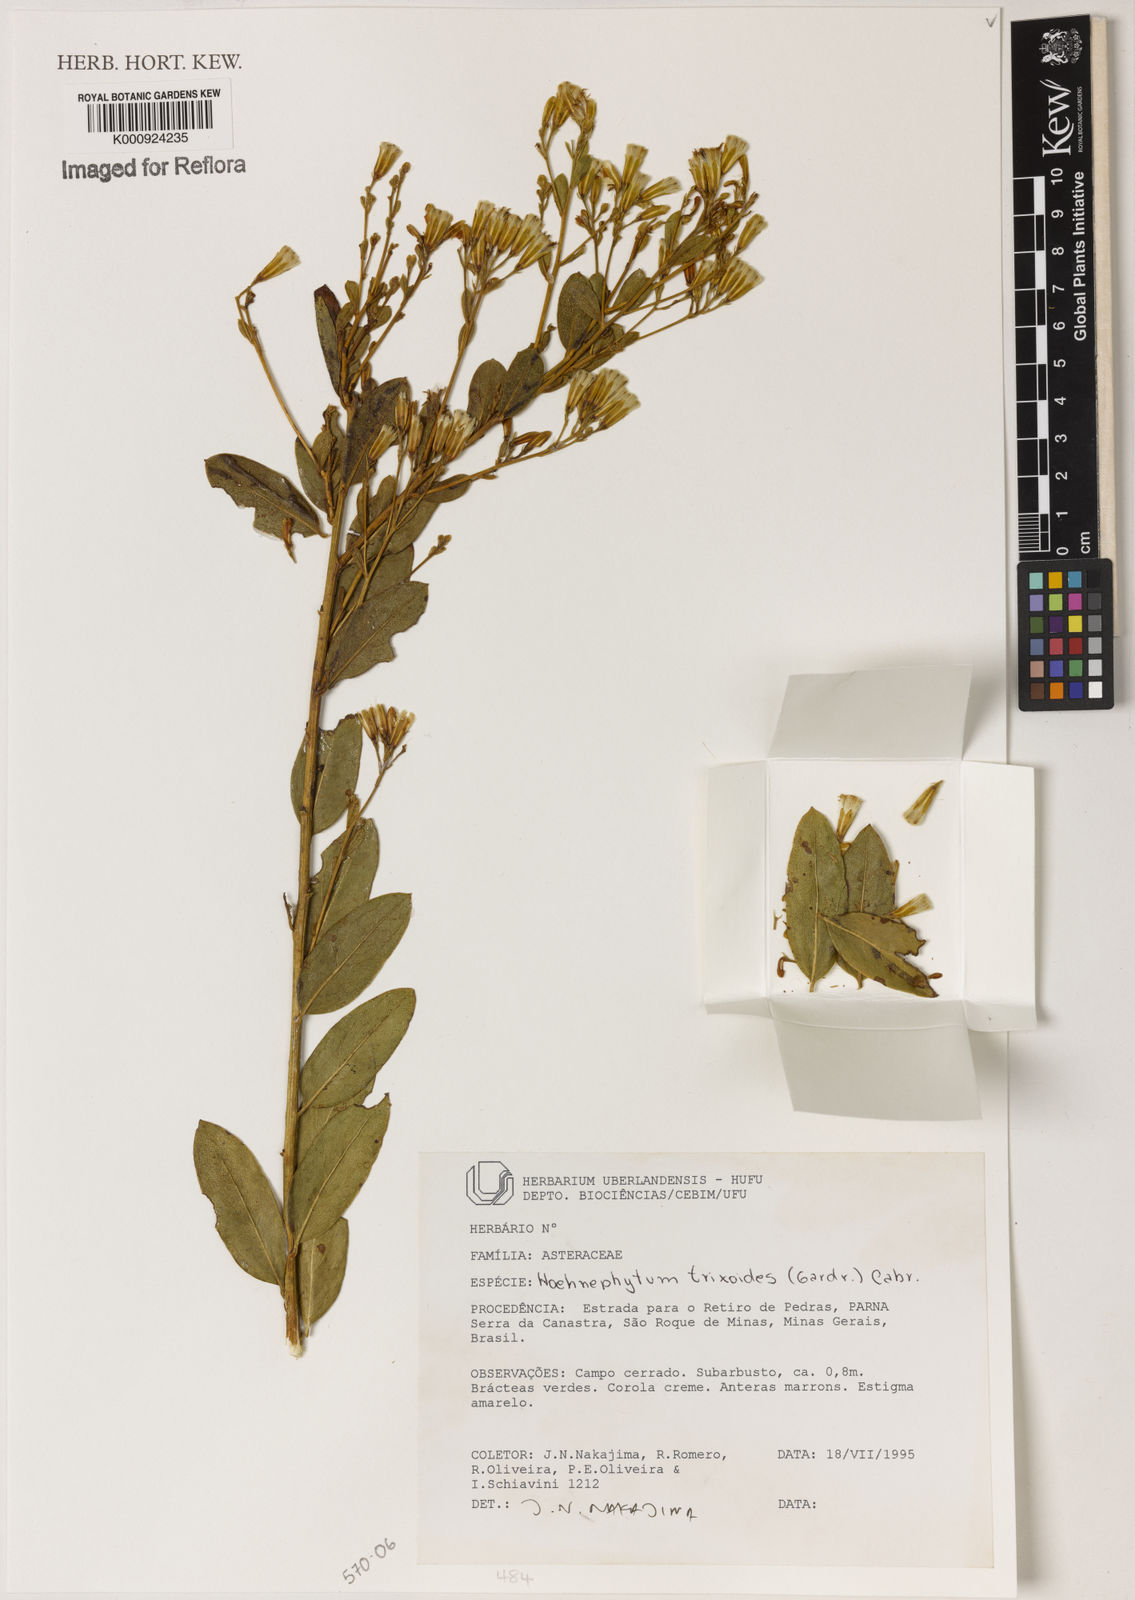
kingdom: Plantae
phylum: Tracheophyta
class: Magnoliopsida
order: Asterales
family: Asteraceae
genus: Hoehnephytum
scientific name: Hoehnephytum trixoides
